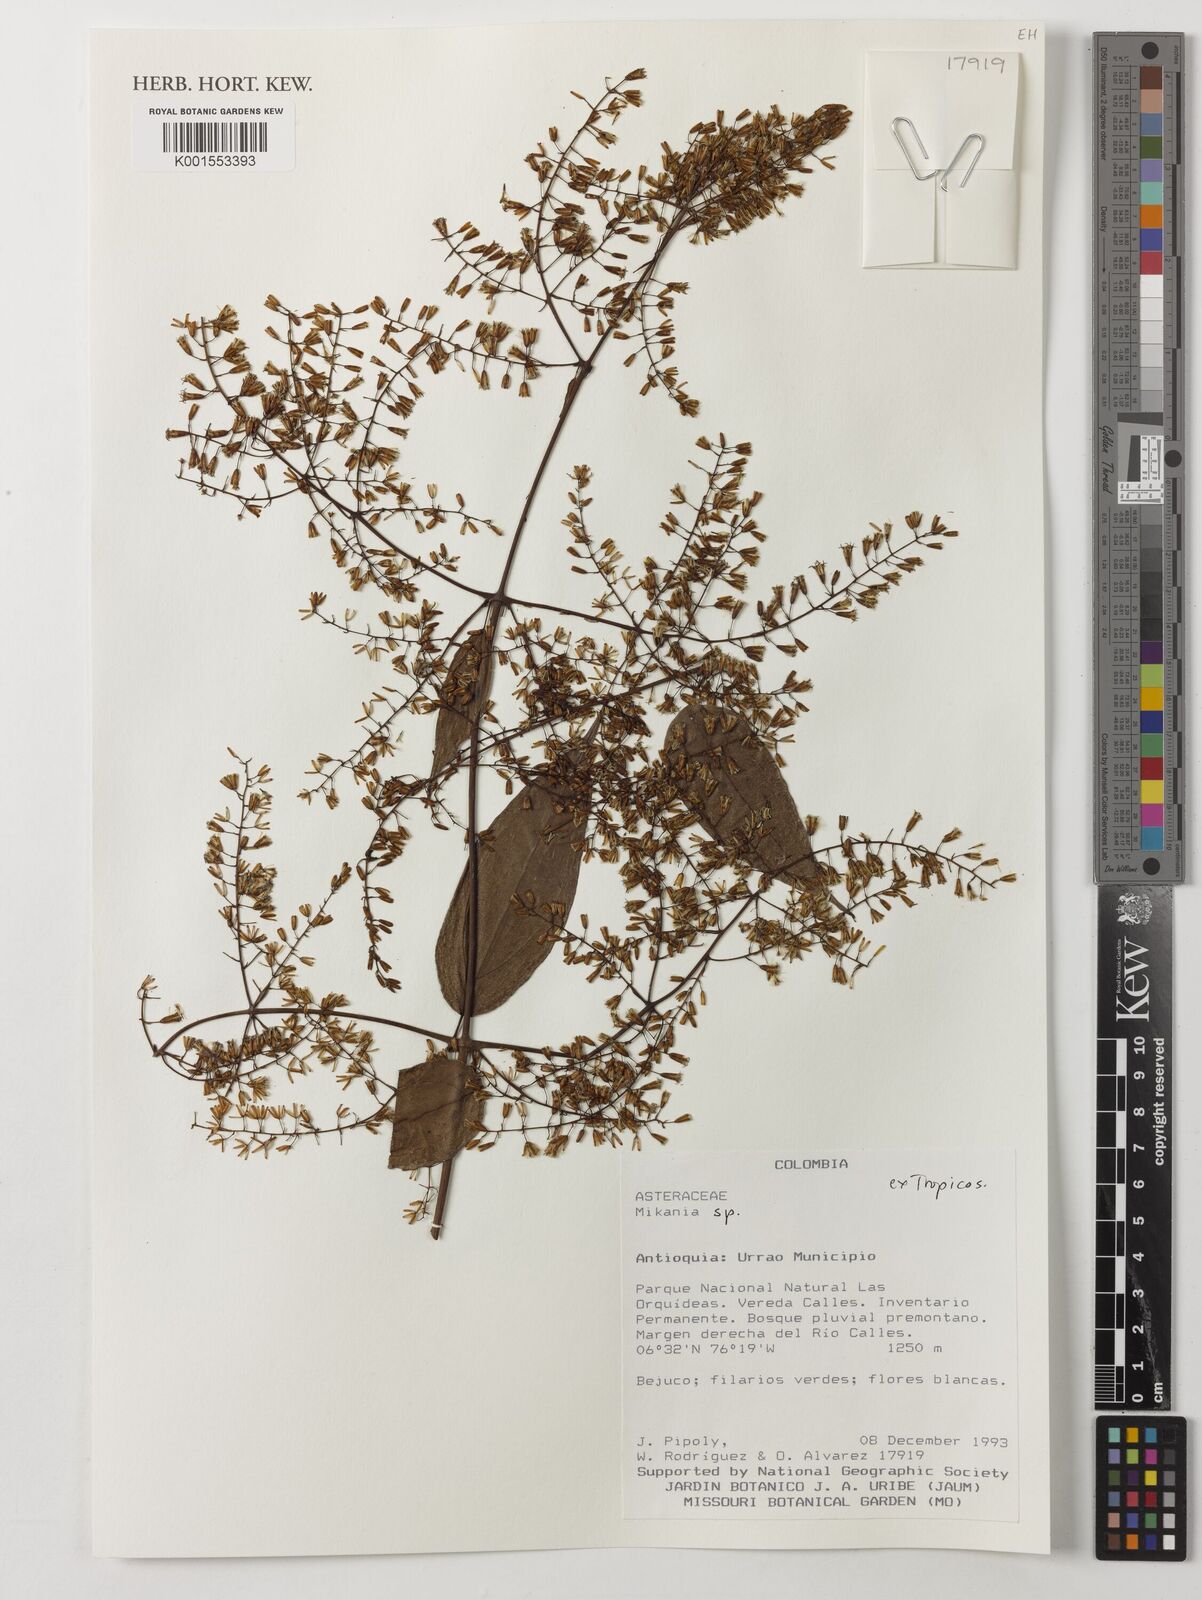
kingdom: Plantae
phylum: Tracheophyta
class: Magnoliopsida
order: Asterales
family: Asteraceae
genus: Mikania
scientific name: Mikania
